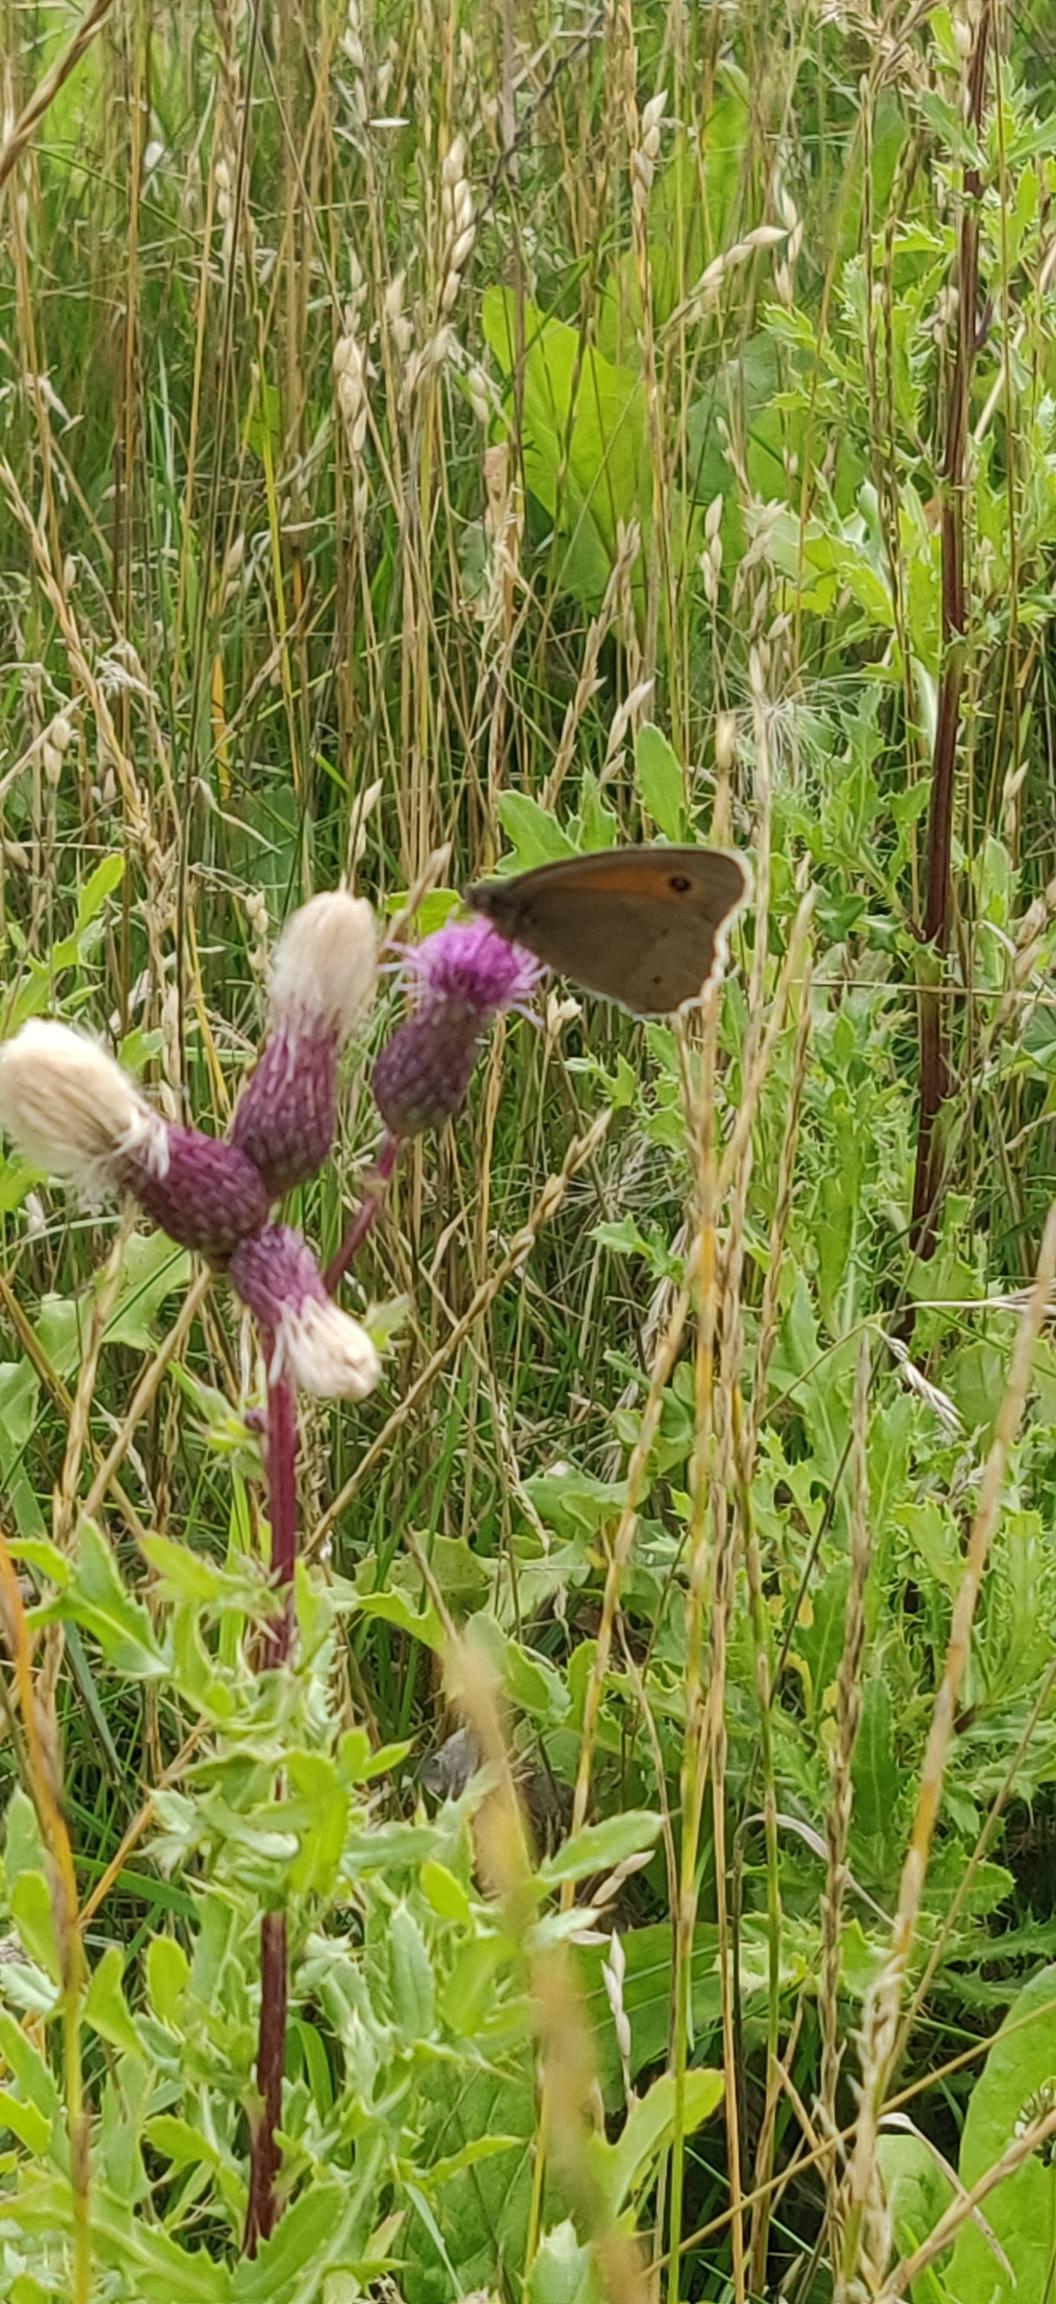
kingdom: Animalia
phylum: Arthropoda
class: Insecta
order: Lepidoptera
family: Nymphalidae
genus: Maniola
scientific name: Maniola jurtina
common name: Græsrandøje
